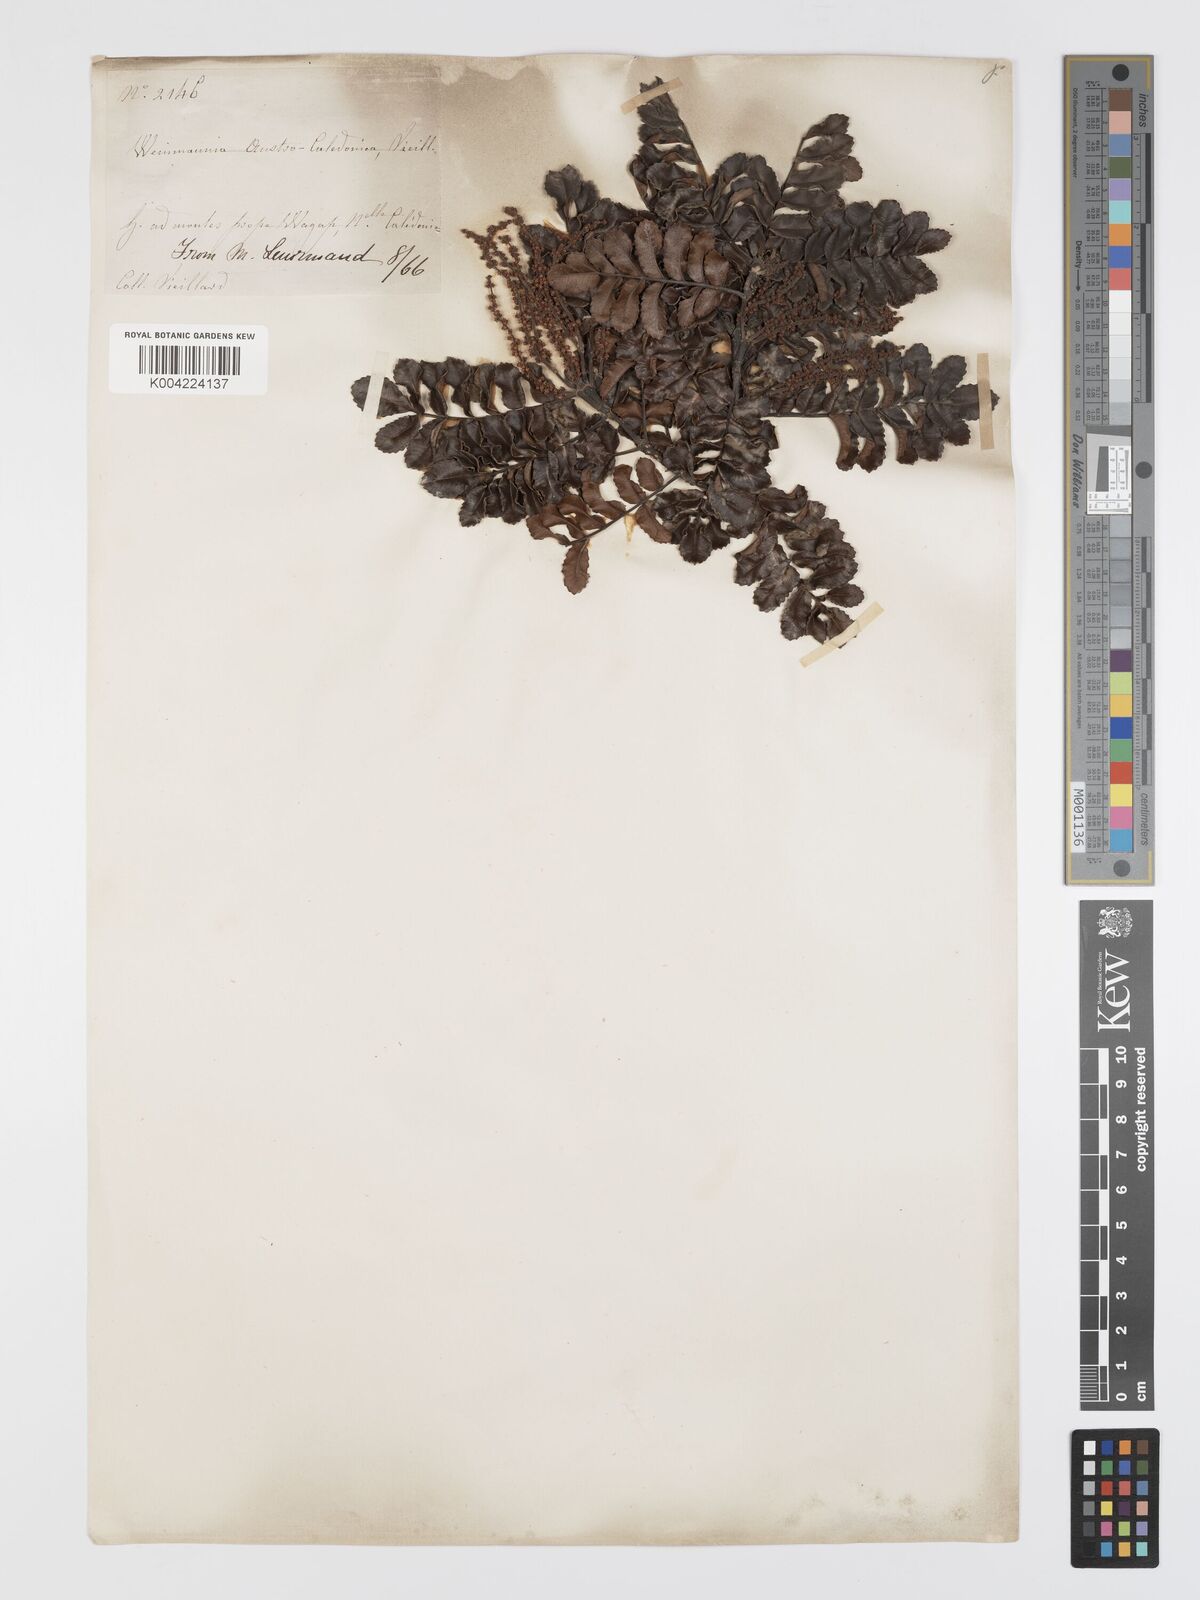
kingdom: Plantae
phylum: Tracheophyta
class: Magnoliopsida
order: Oxalidales
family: Cunoniaceae
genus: Cunonia
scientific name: Cunonia austrocaledonica
